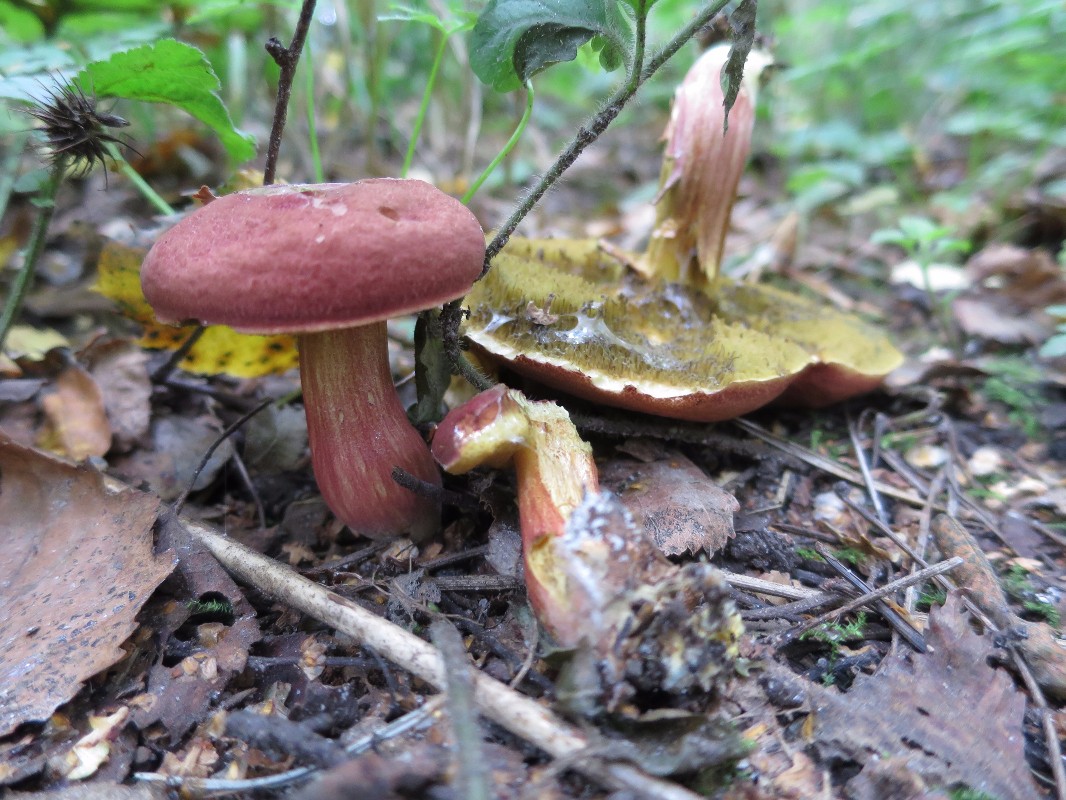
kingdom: Fungi
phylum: Basidiomycota
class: Agaricomycetes
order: Boletales
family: Boletaceae
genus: Hortiboletus
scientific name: Hortiboletus rubellus
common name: blodrød rørhat
